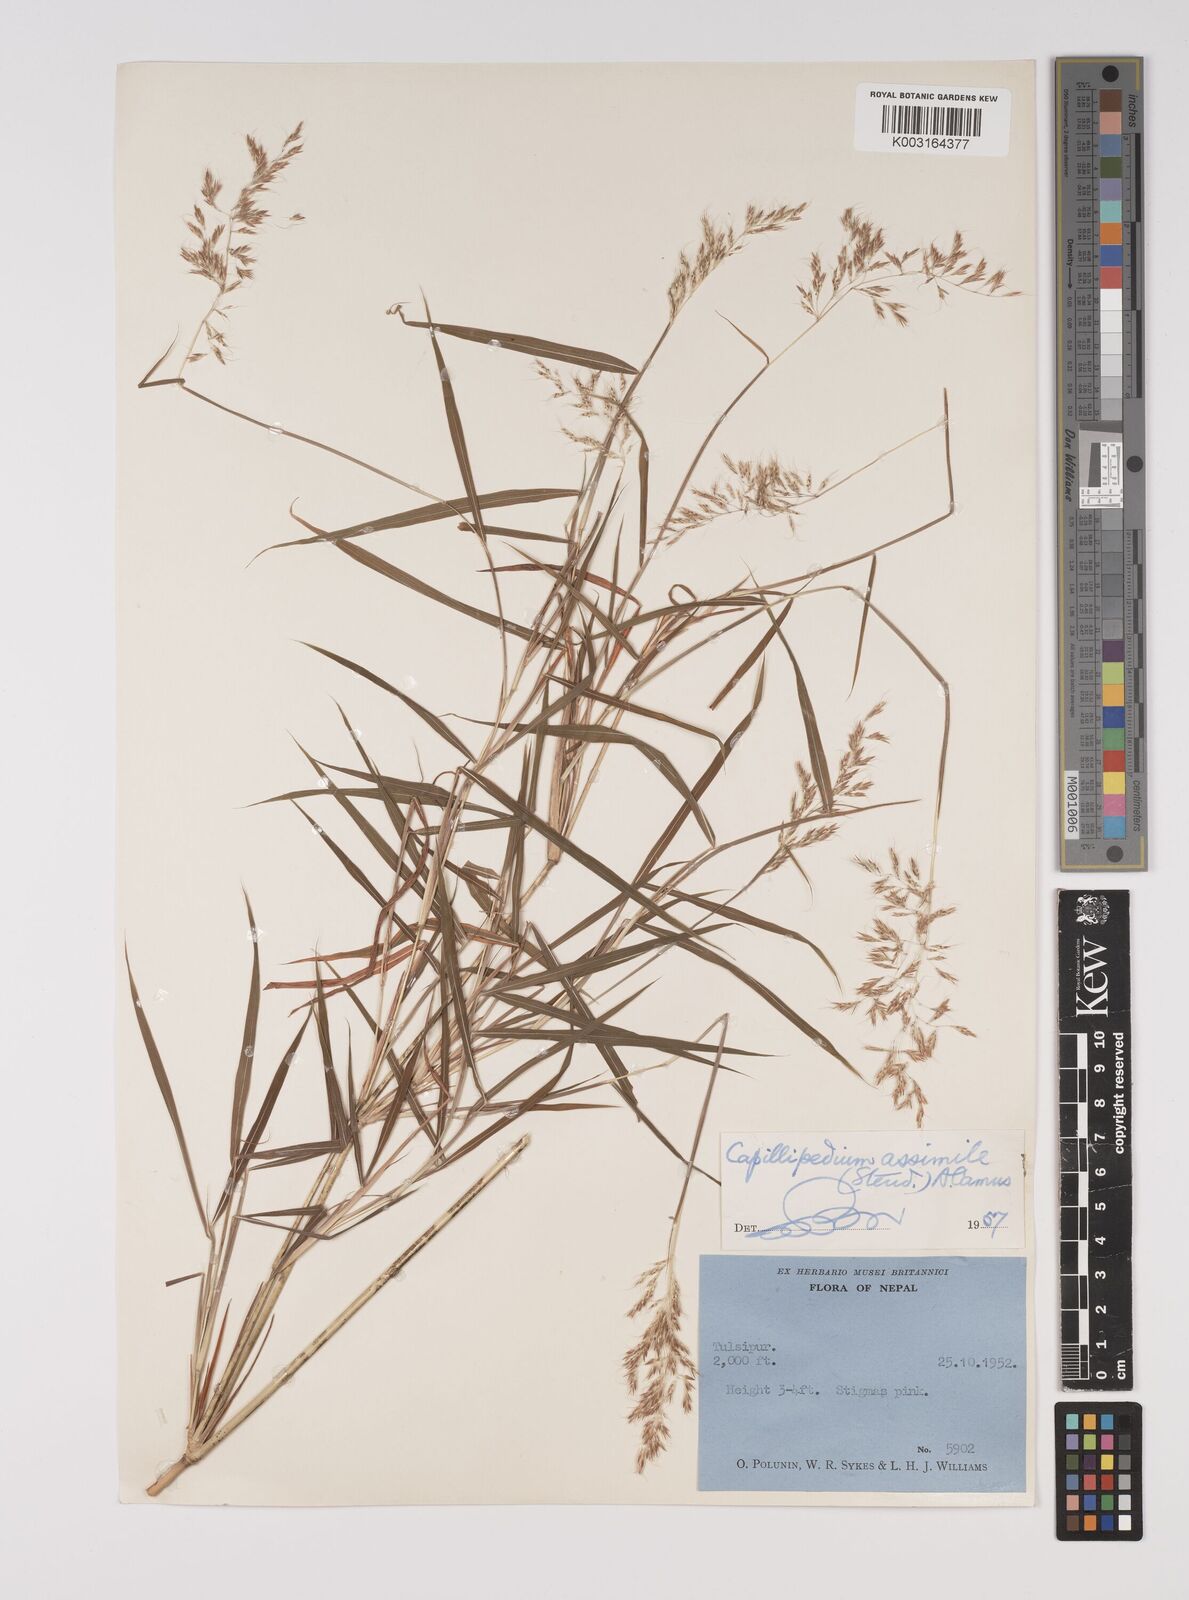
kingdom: Plantae
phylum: Tracheophyta
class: Liliopsida
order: Poales
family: Poaceae
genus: Capillipedium
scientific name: Capillipedium assimile
